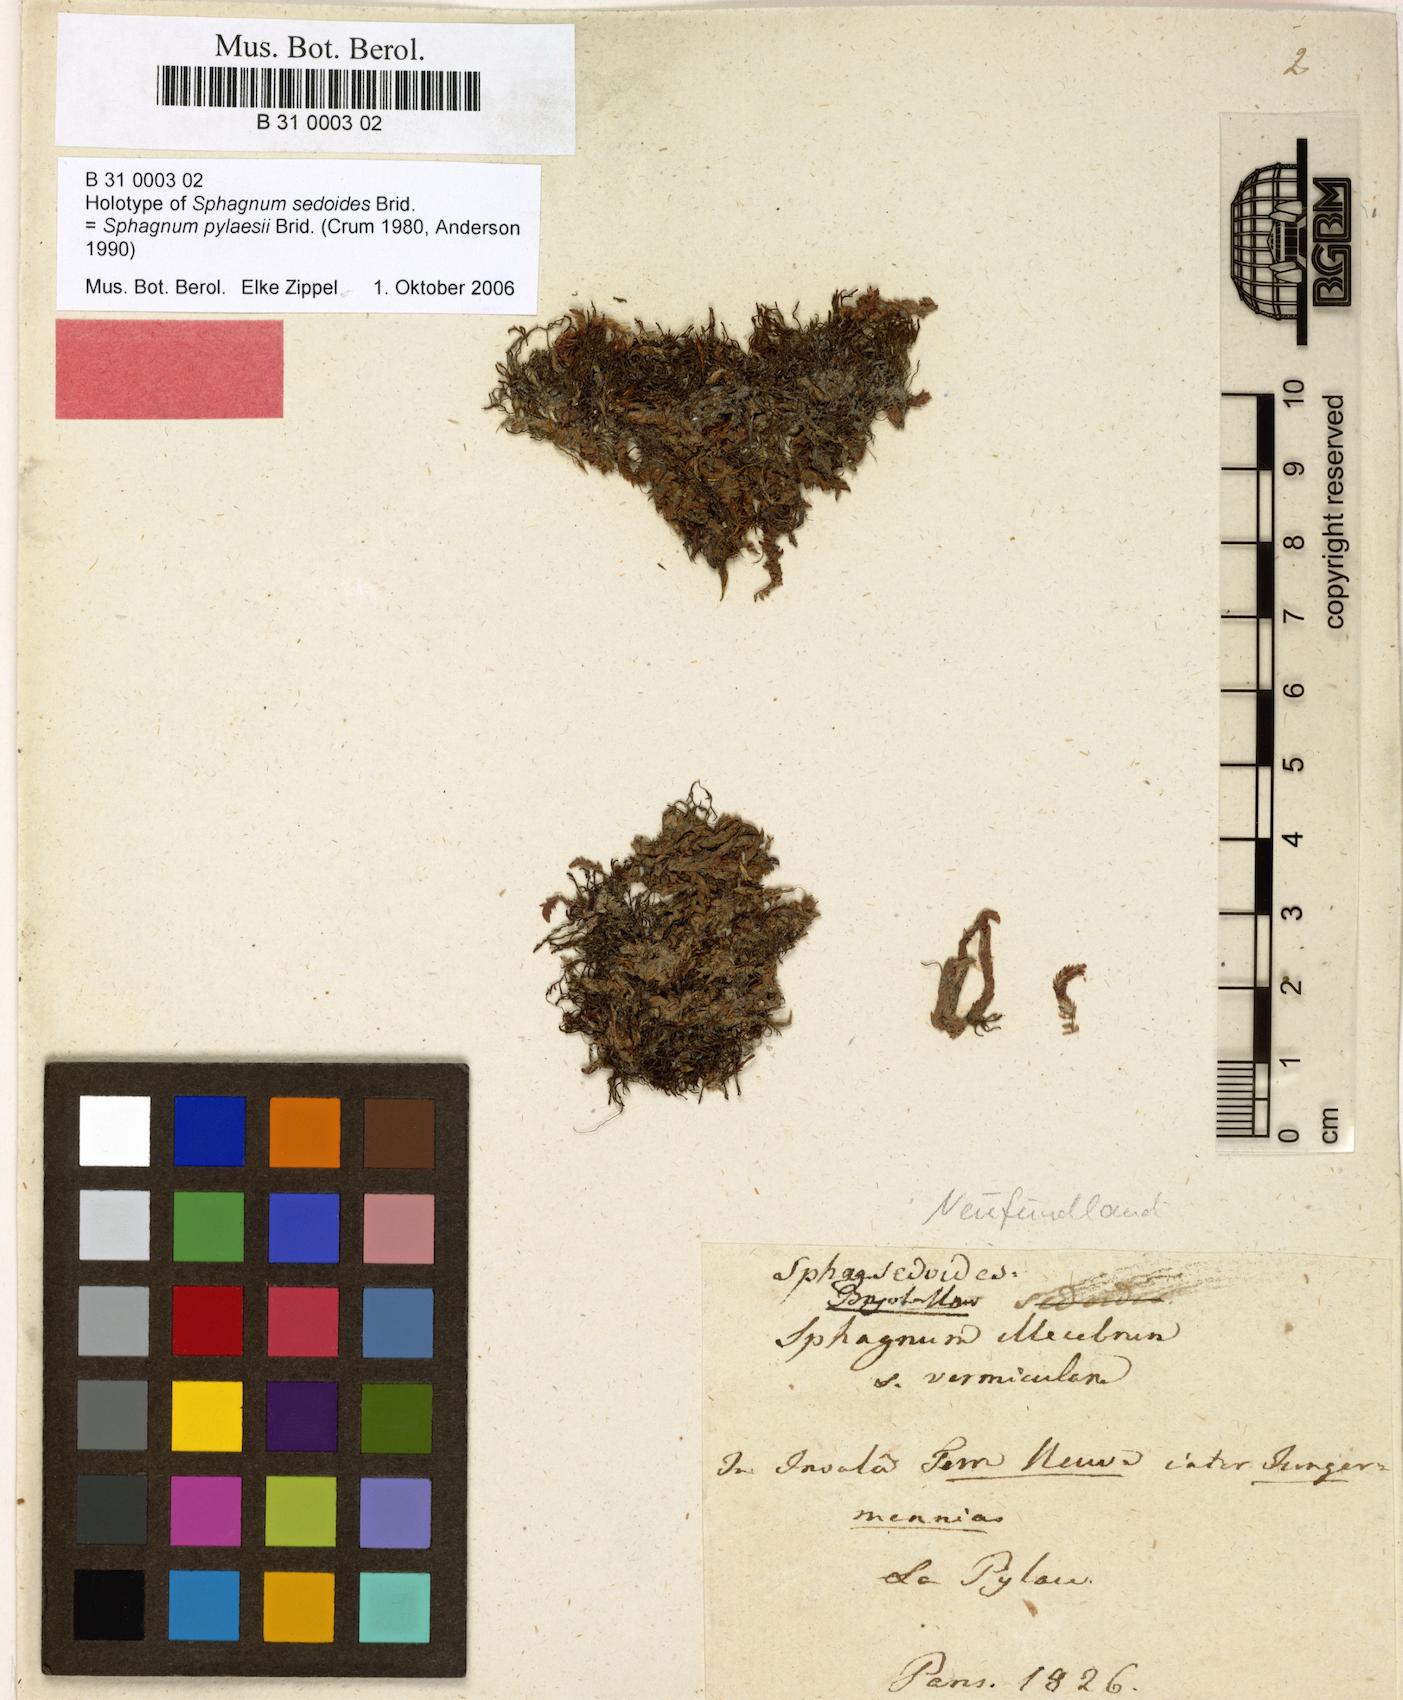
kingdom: Plantae
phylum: Bryophyta
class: Sphagnopsida
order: Sphagnales
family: Sphagnaceae
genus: Sphagnum
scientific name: Sphagnum pylaesii
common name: Pylaie's peat moss
